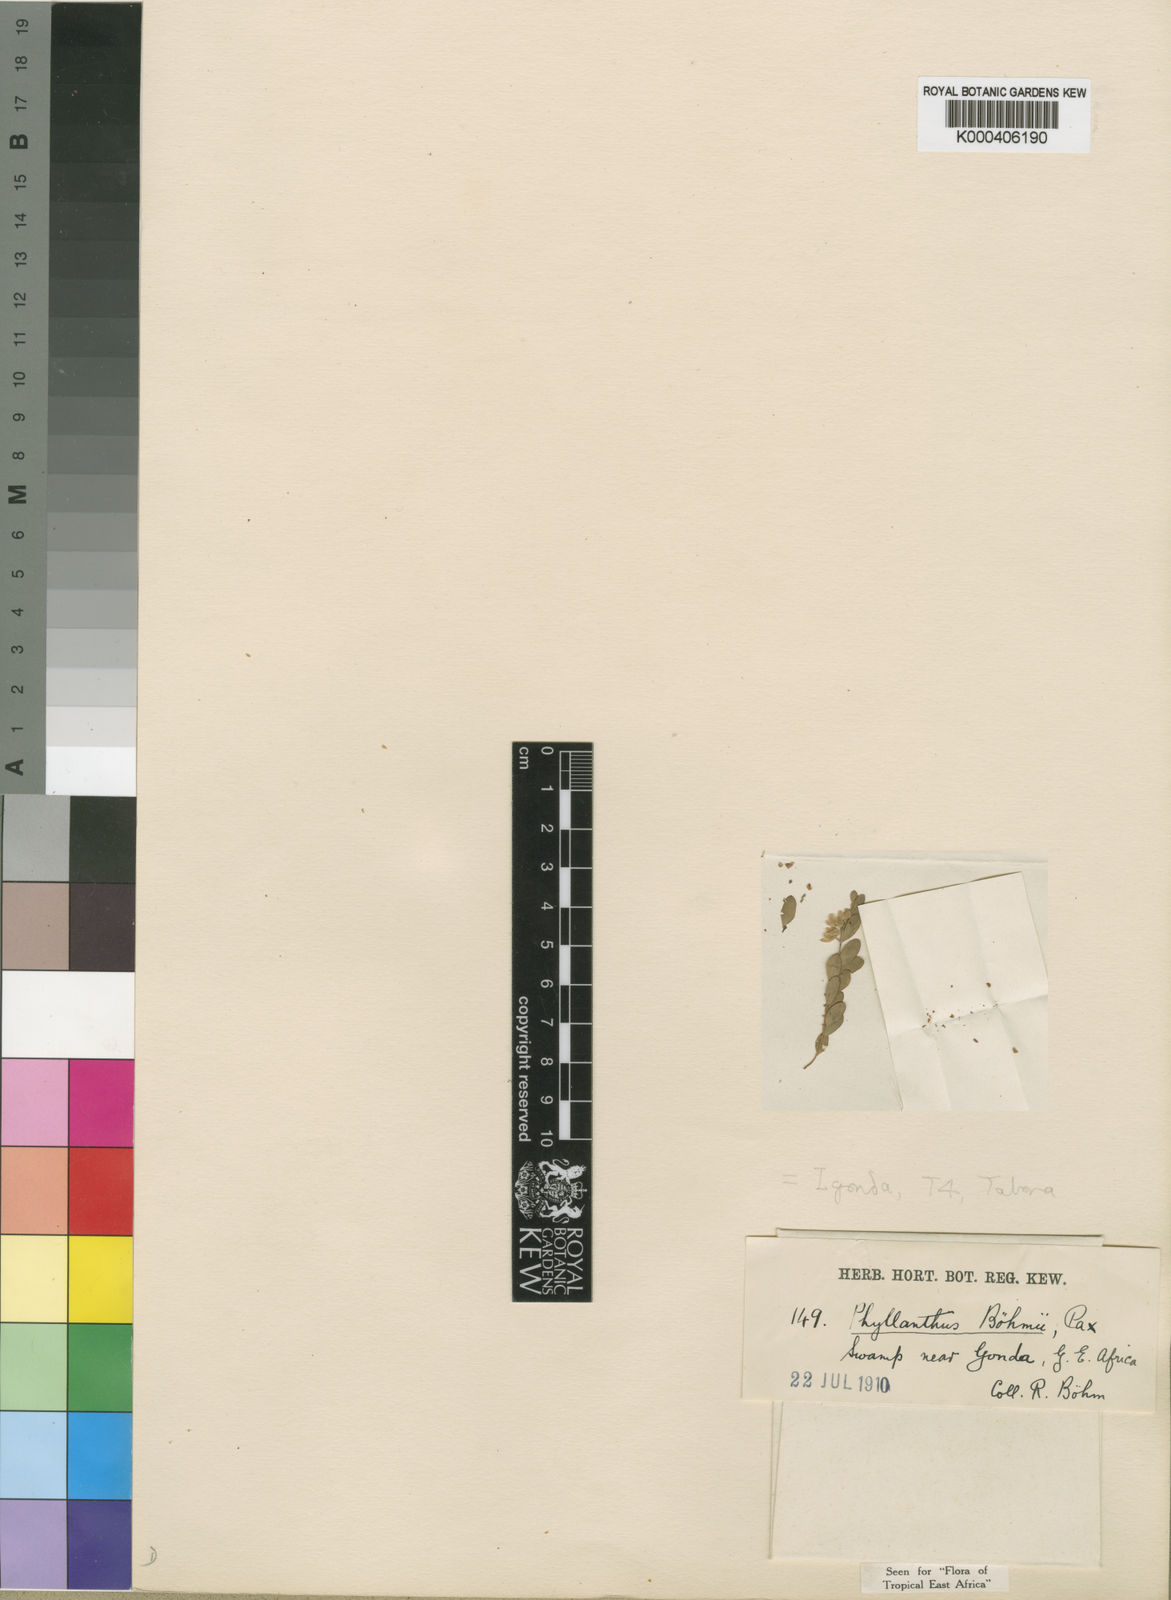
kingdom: Plantae
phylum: Tracheophyta
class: Magnoliopsida
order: Malpighiales
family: Phyllanthaceae
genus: Phyllanthus
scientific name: Phyllanthus boehmii
